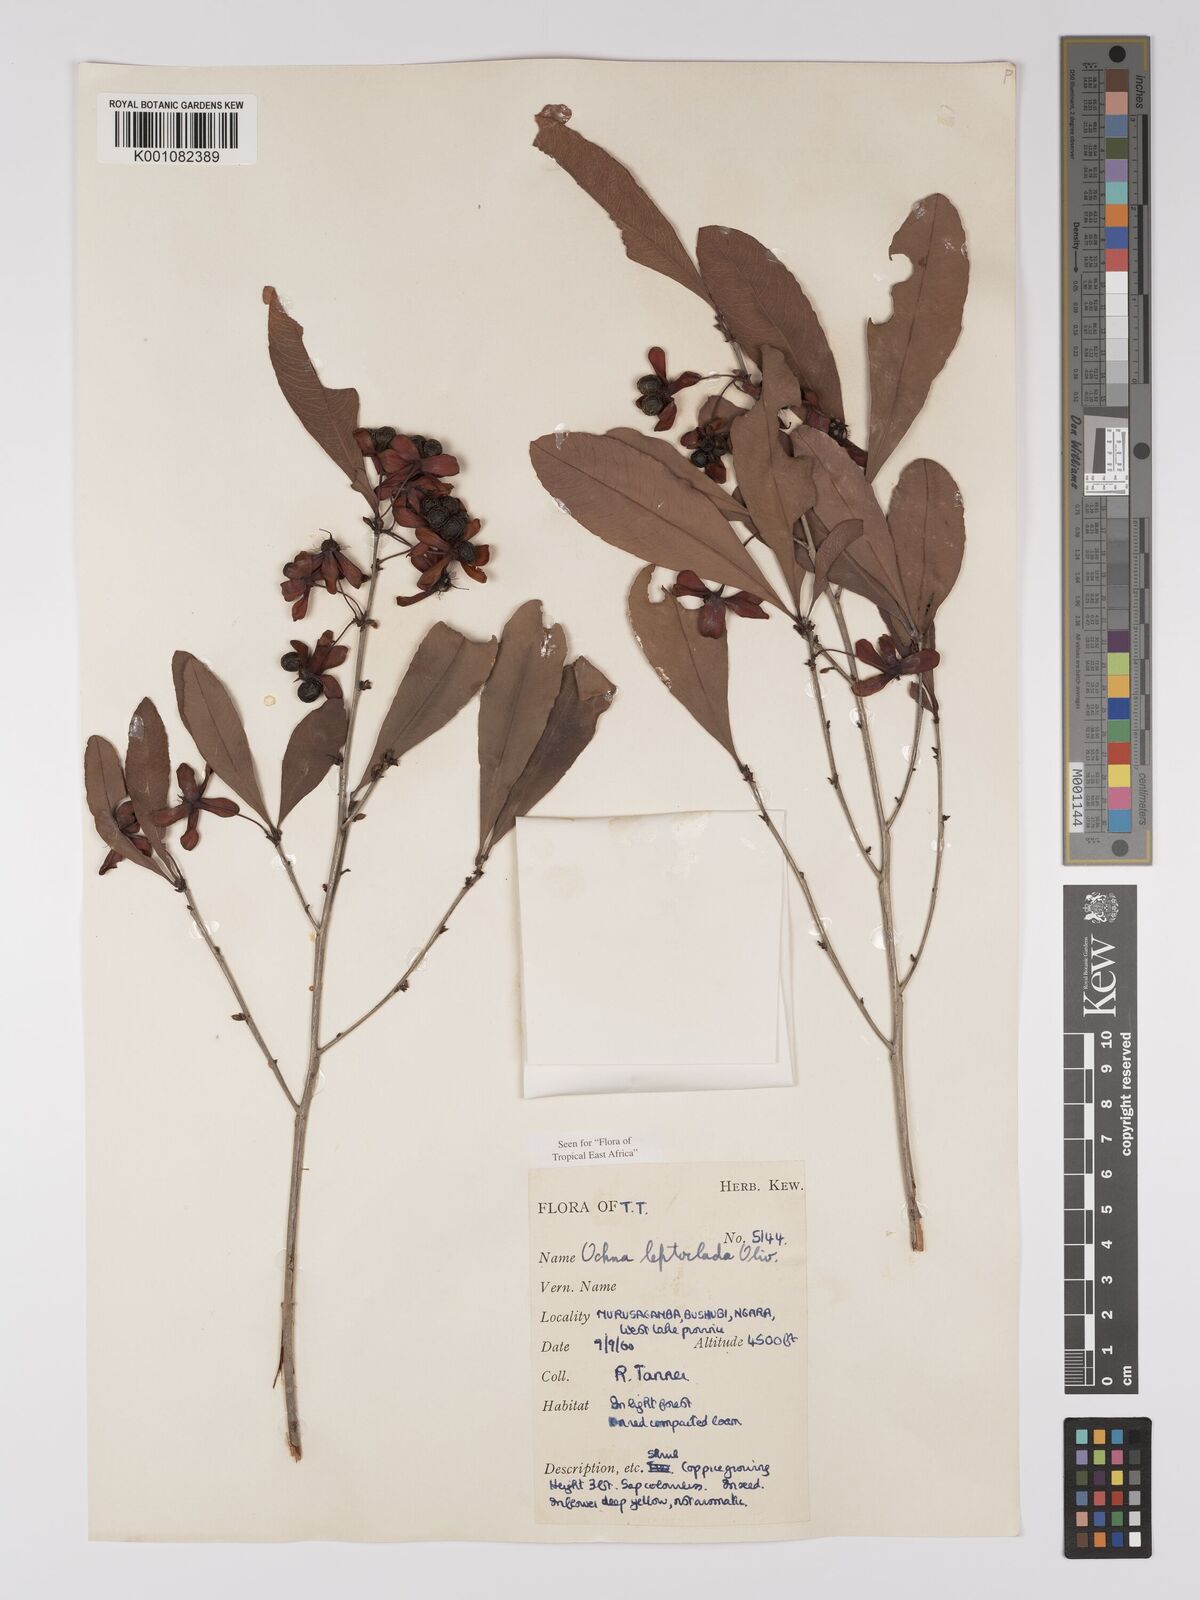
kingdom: Plantae
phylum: Tracheophyta
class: Magnoliopsida
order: Malpighiales
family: Ochnaceae
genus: Ochna
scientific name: Ochna leptoclada
